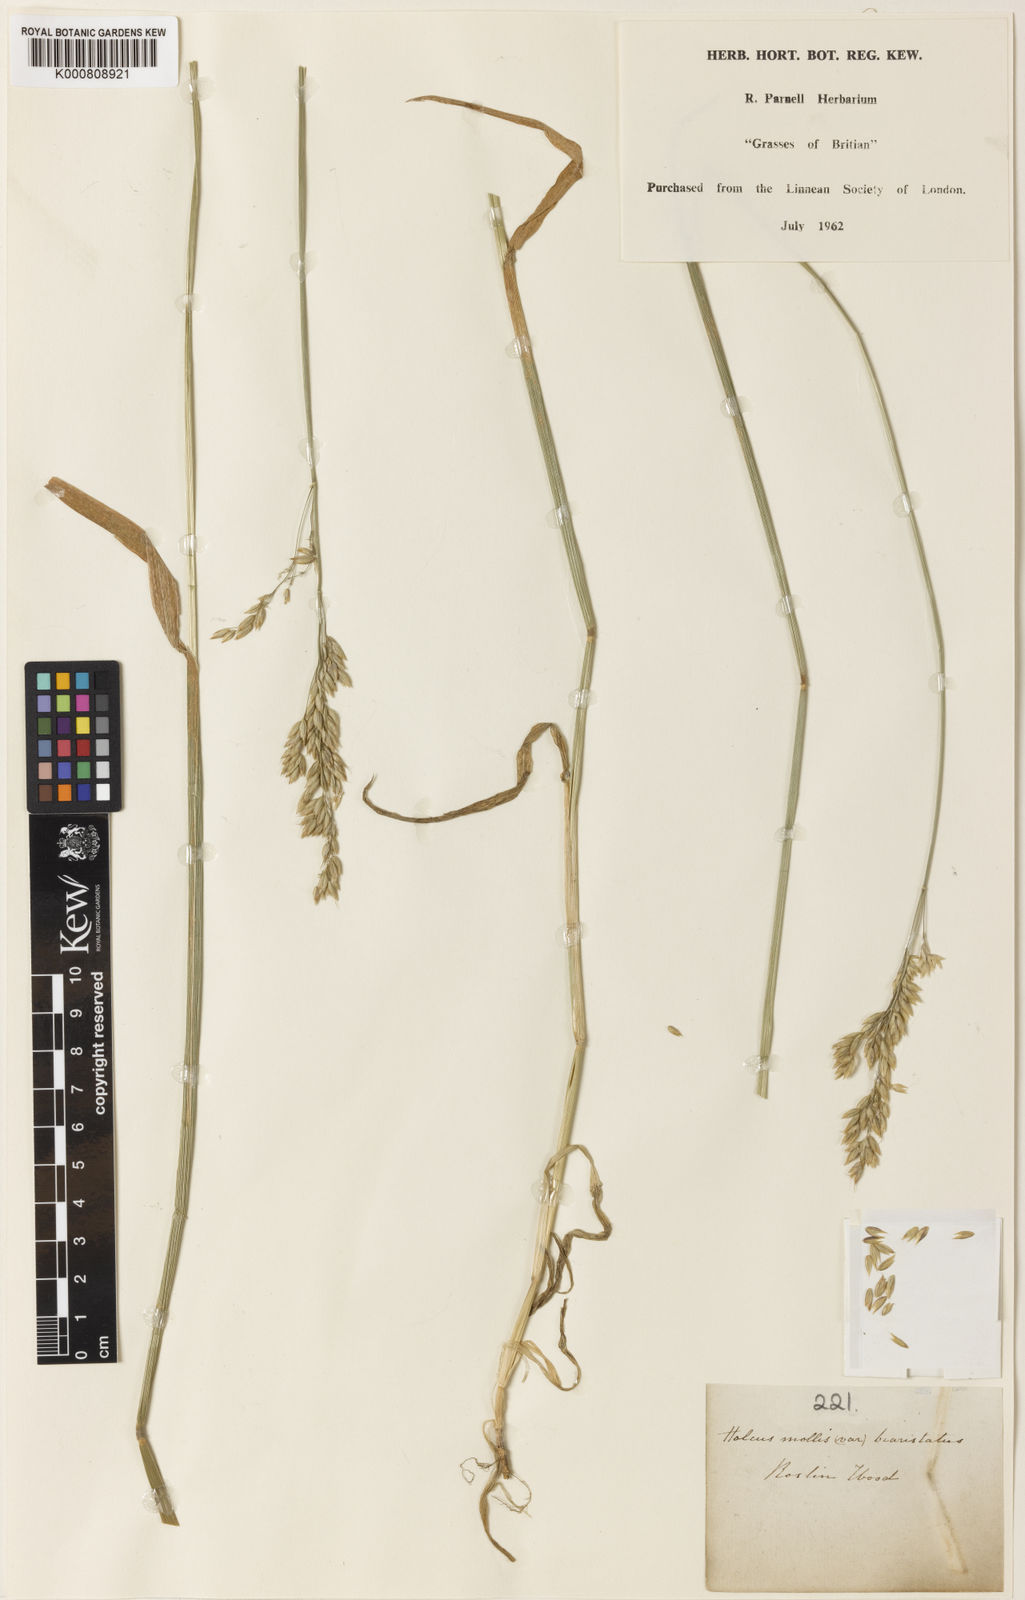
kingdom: Plantae
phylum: Tracheophyta
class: Liliopsida
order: Poales
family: Poaceae
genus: Holcus
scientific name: Holcus mollis
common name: Creeping velvetgrass
